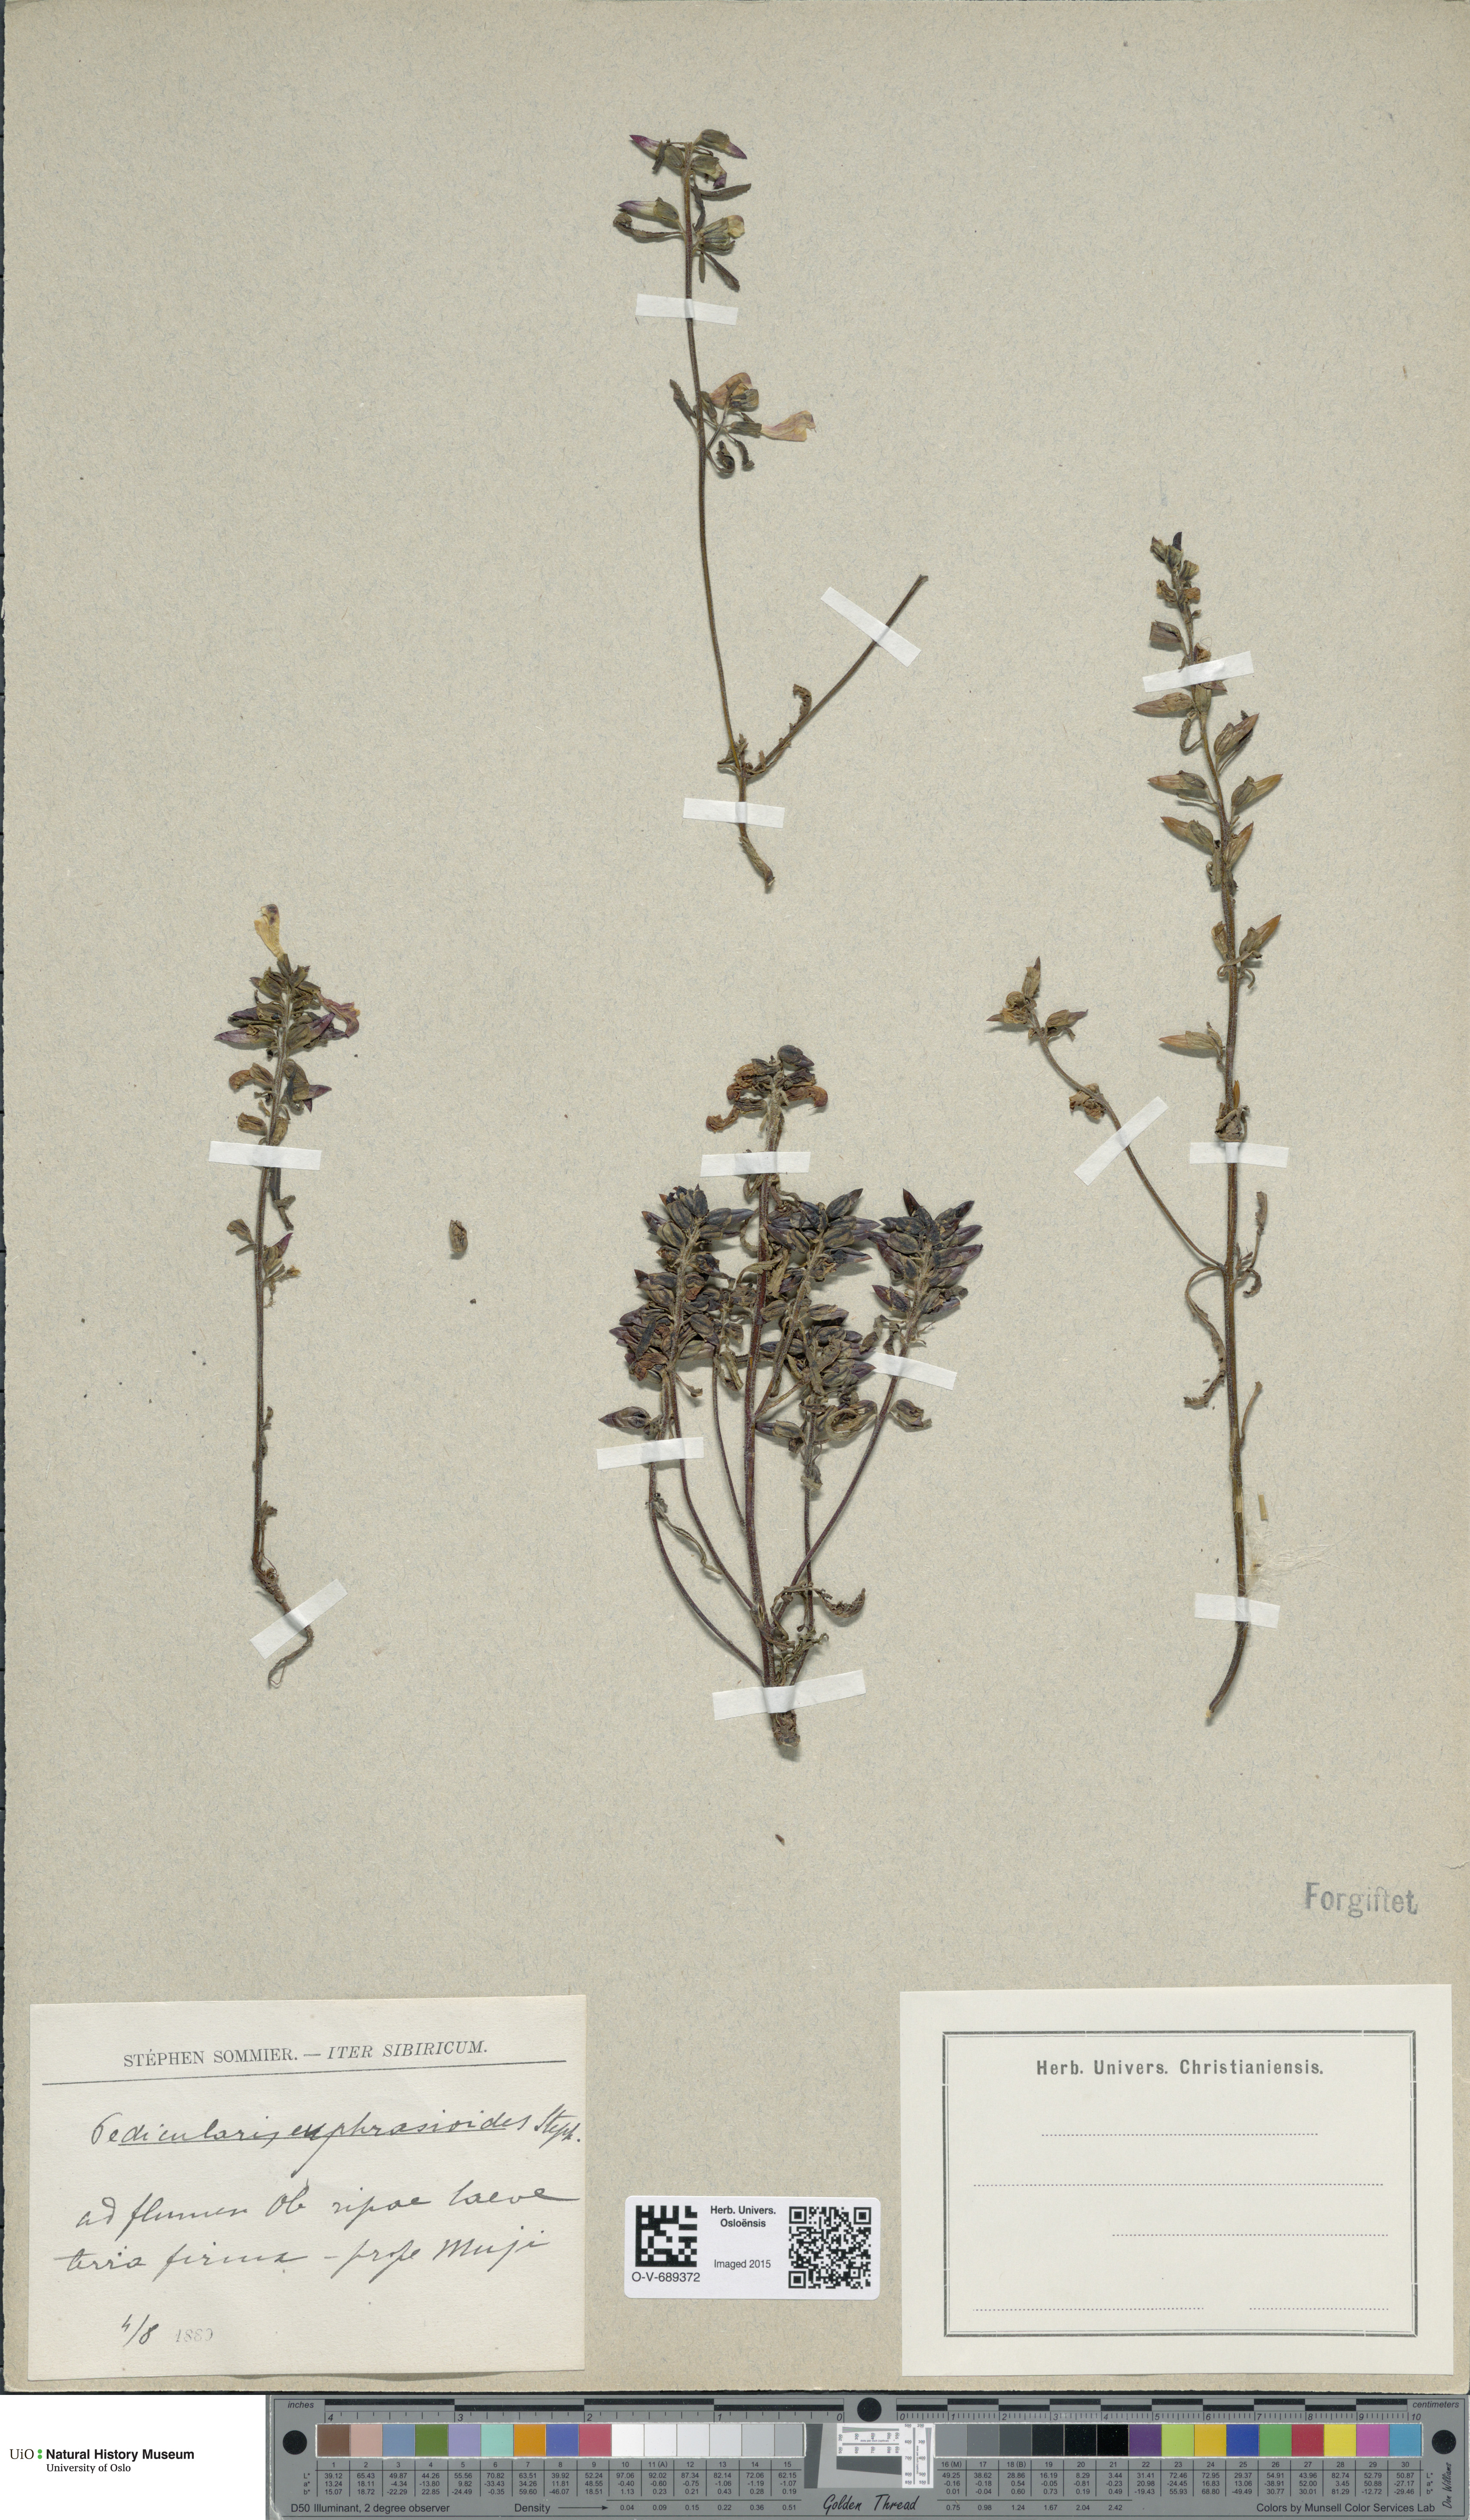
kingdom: Plantae
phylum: Tracheophyta
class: Magnoliopsida
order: Lamiales
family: Orobanchaceae
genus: Pedicularis
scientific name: Pedicularis labradorica
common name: Labrador lousewort
